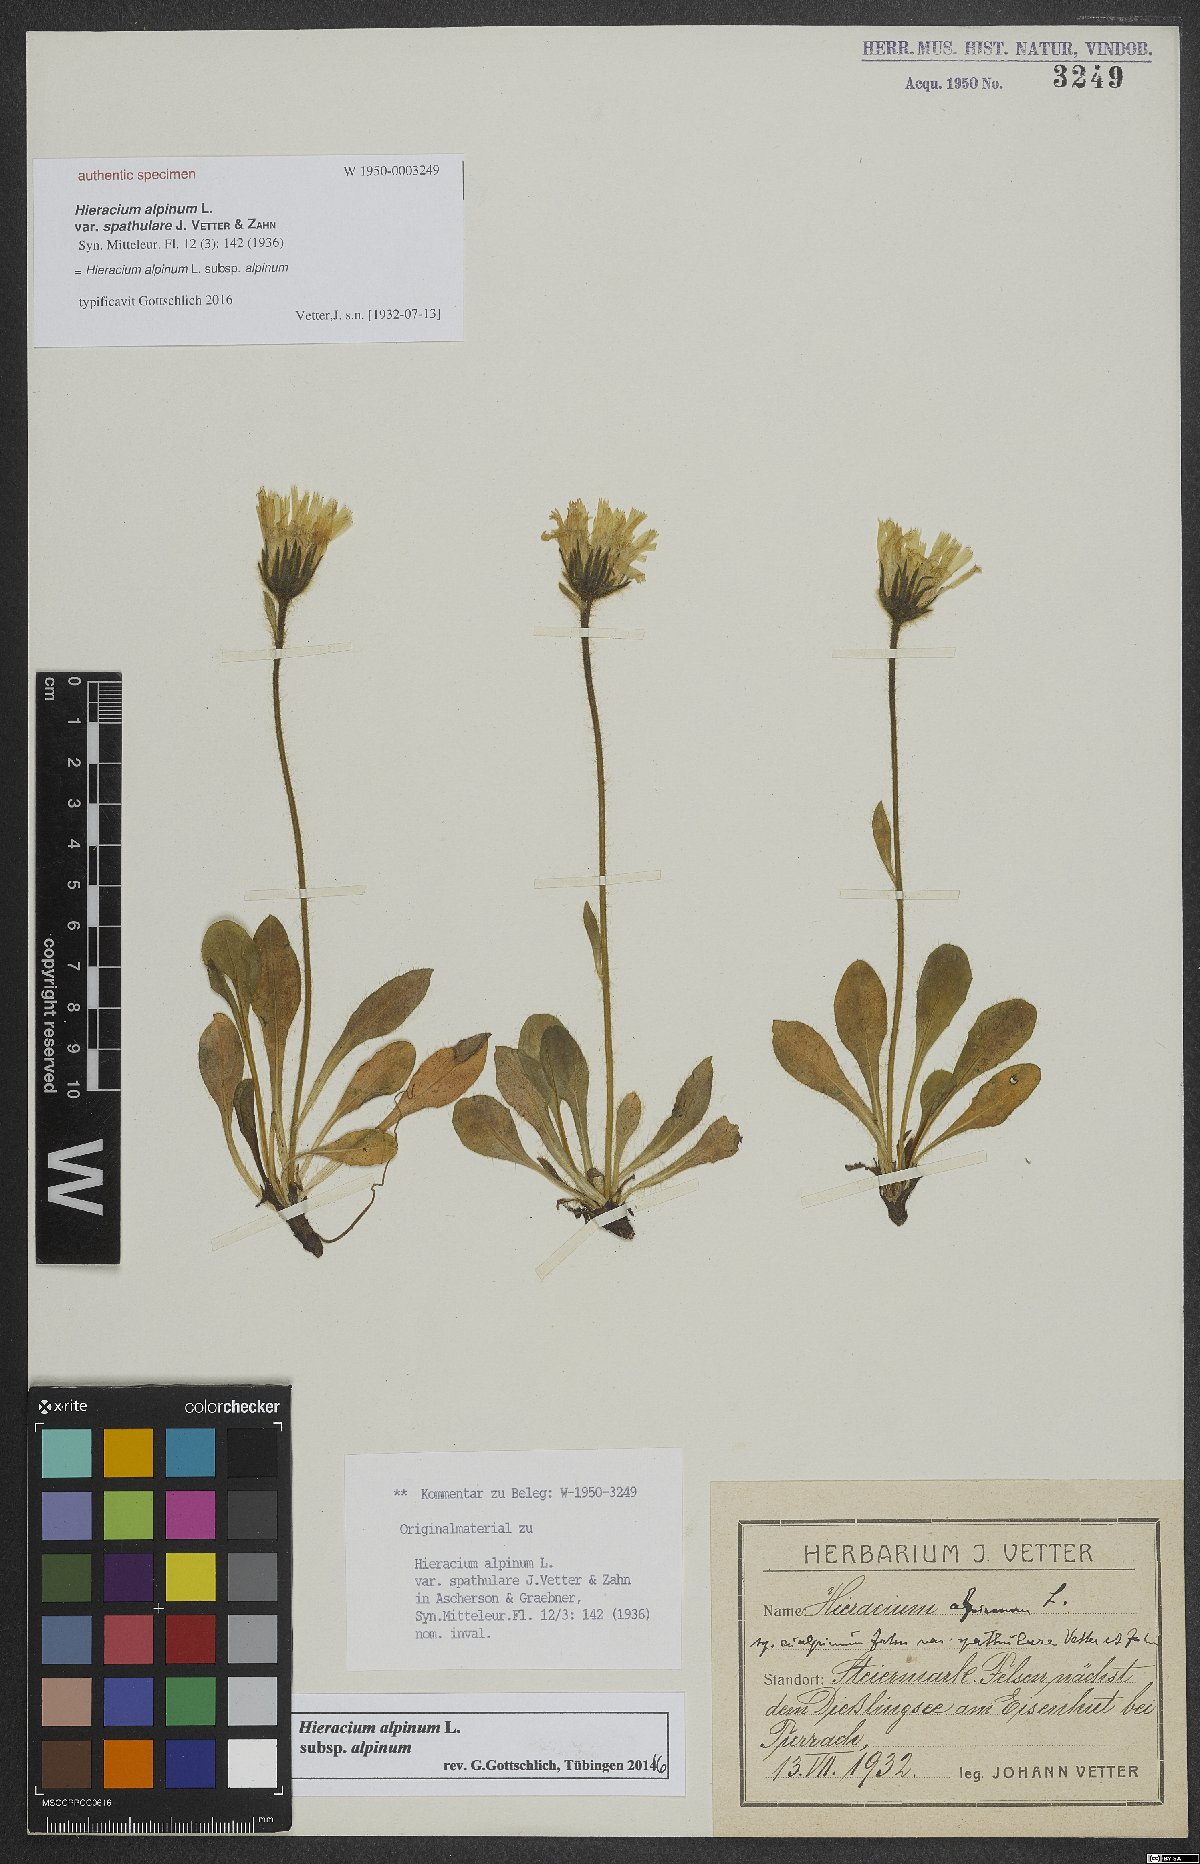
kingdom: Plantae
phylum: Tracheophyta
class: Magnoliopsida
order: Asterales
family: Asteraceae
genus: Hieracium
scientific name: Hieracium alpinum
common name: Alpine hawkweed
